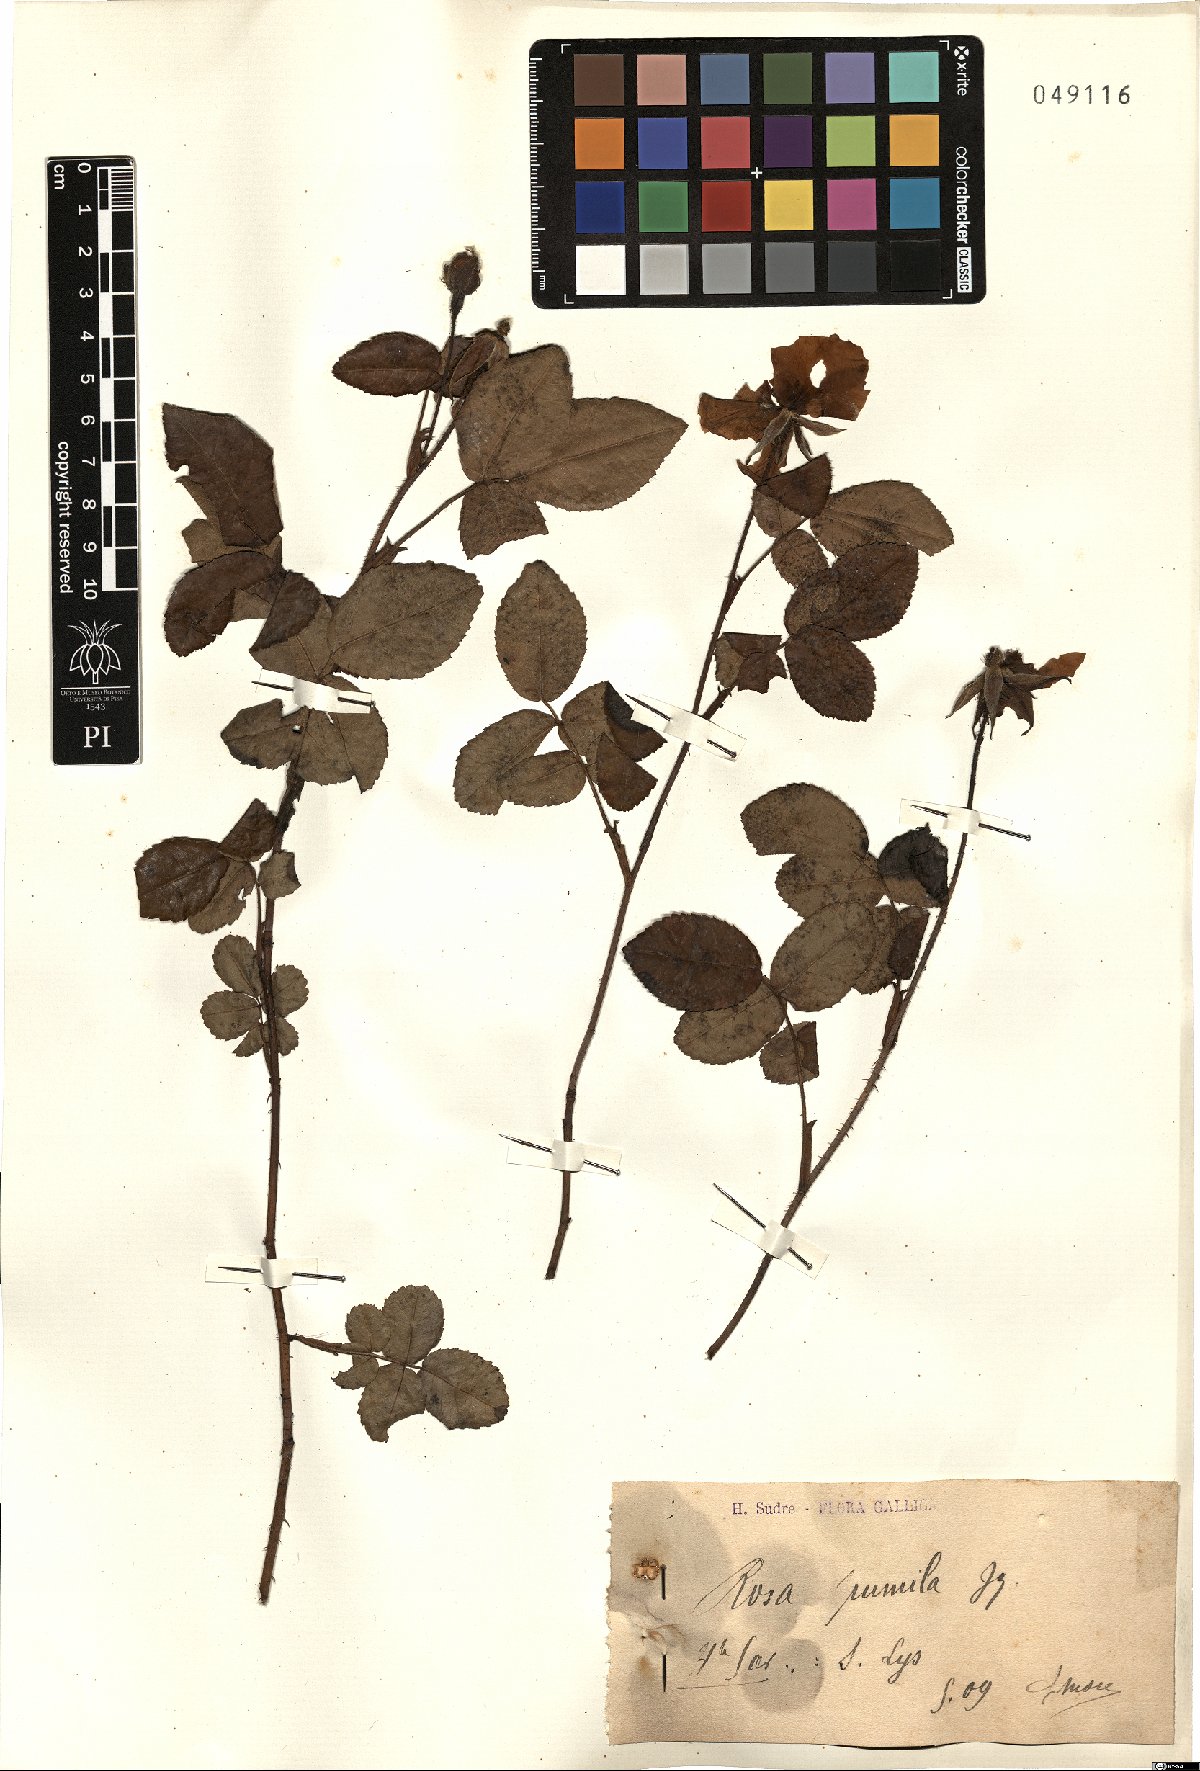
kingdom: Plantae
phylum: Tracheophyta
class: Magnoliopsida
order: Rosales
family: Rosaceae
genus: Rosa
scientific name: Rosa gallica
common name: French rose
